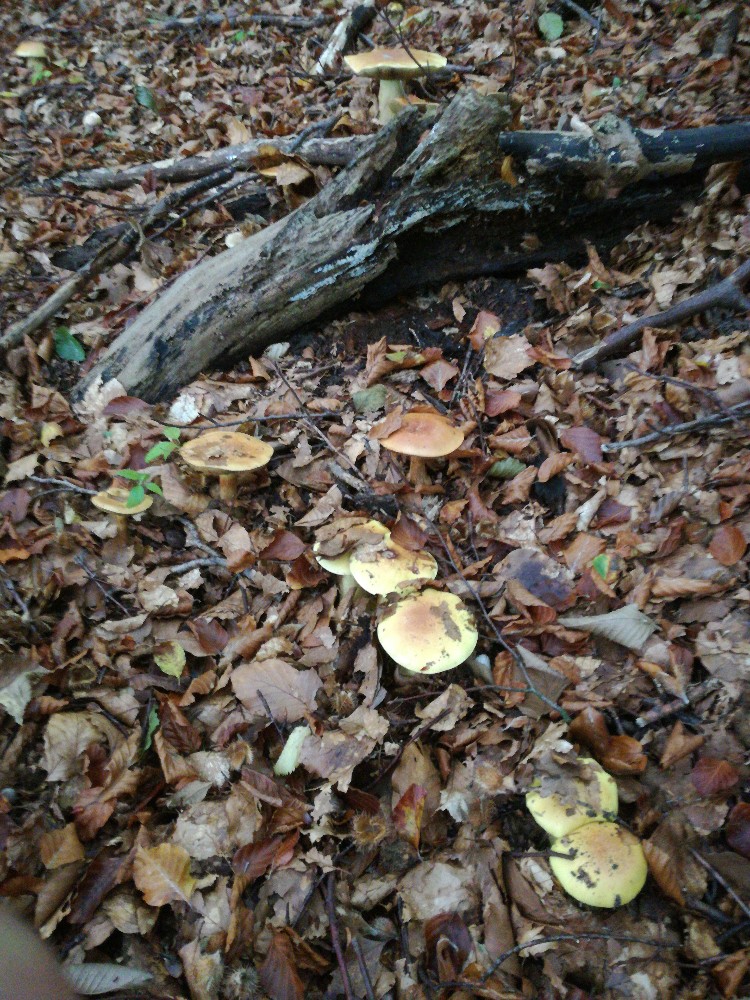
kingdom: Fungi
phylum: Basidiomycota
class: Agaricomycetes
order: Agaricales
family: Cortinariaceae
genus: Calonarius
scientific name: Calonarius elegantissimus
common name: orangegylden slørhat
